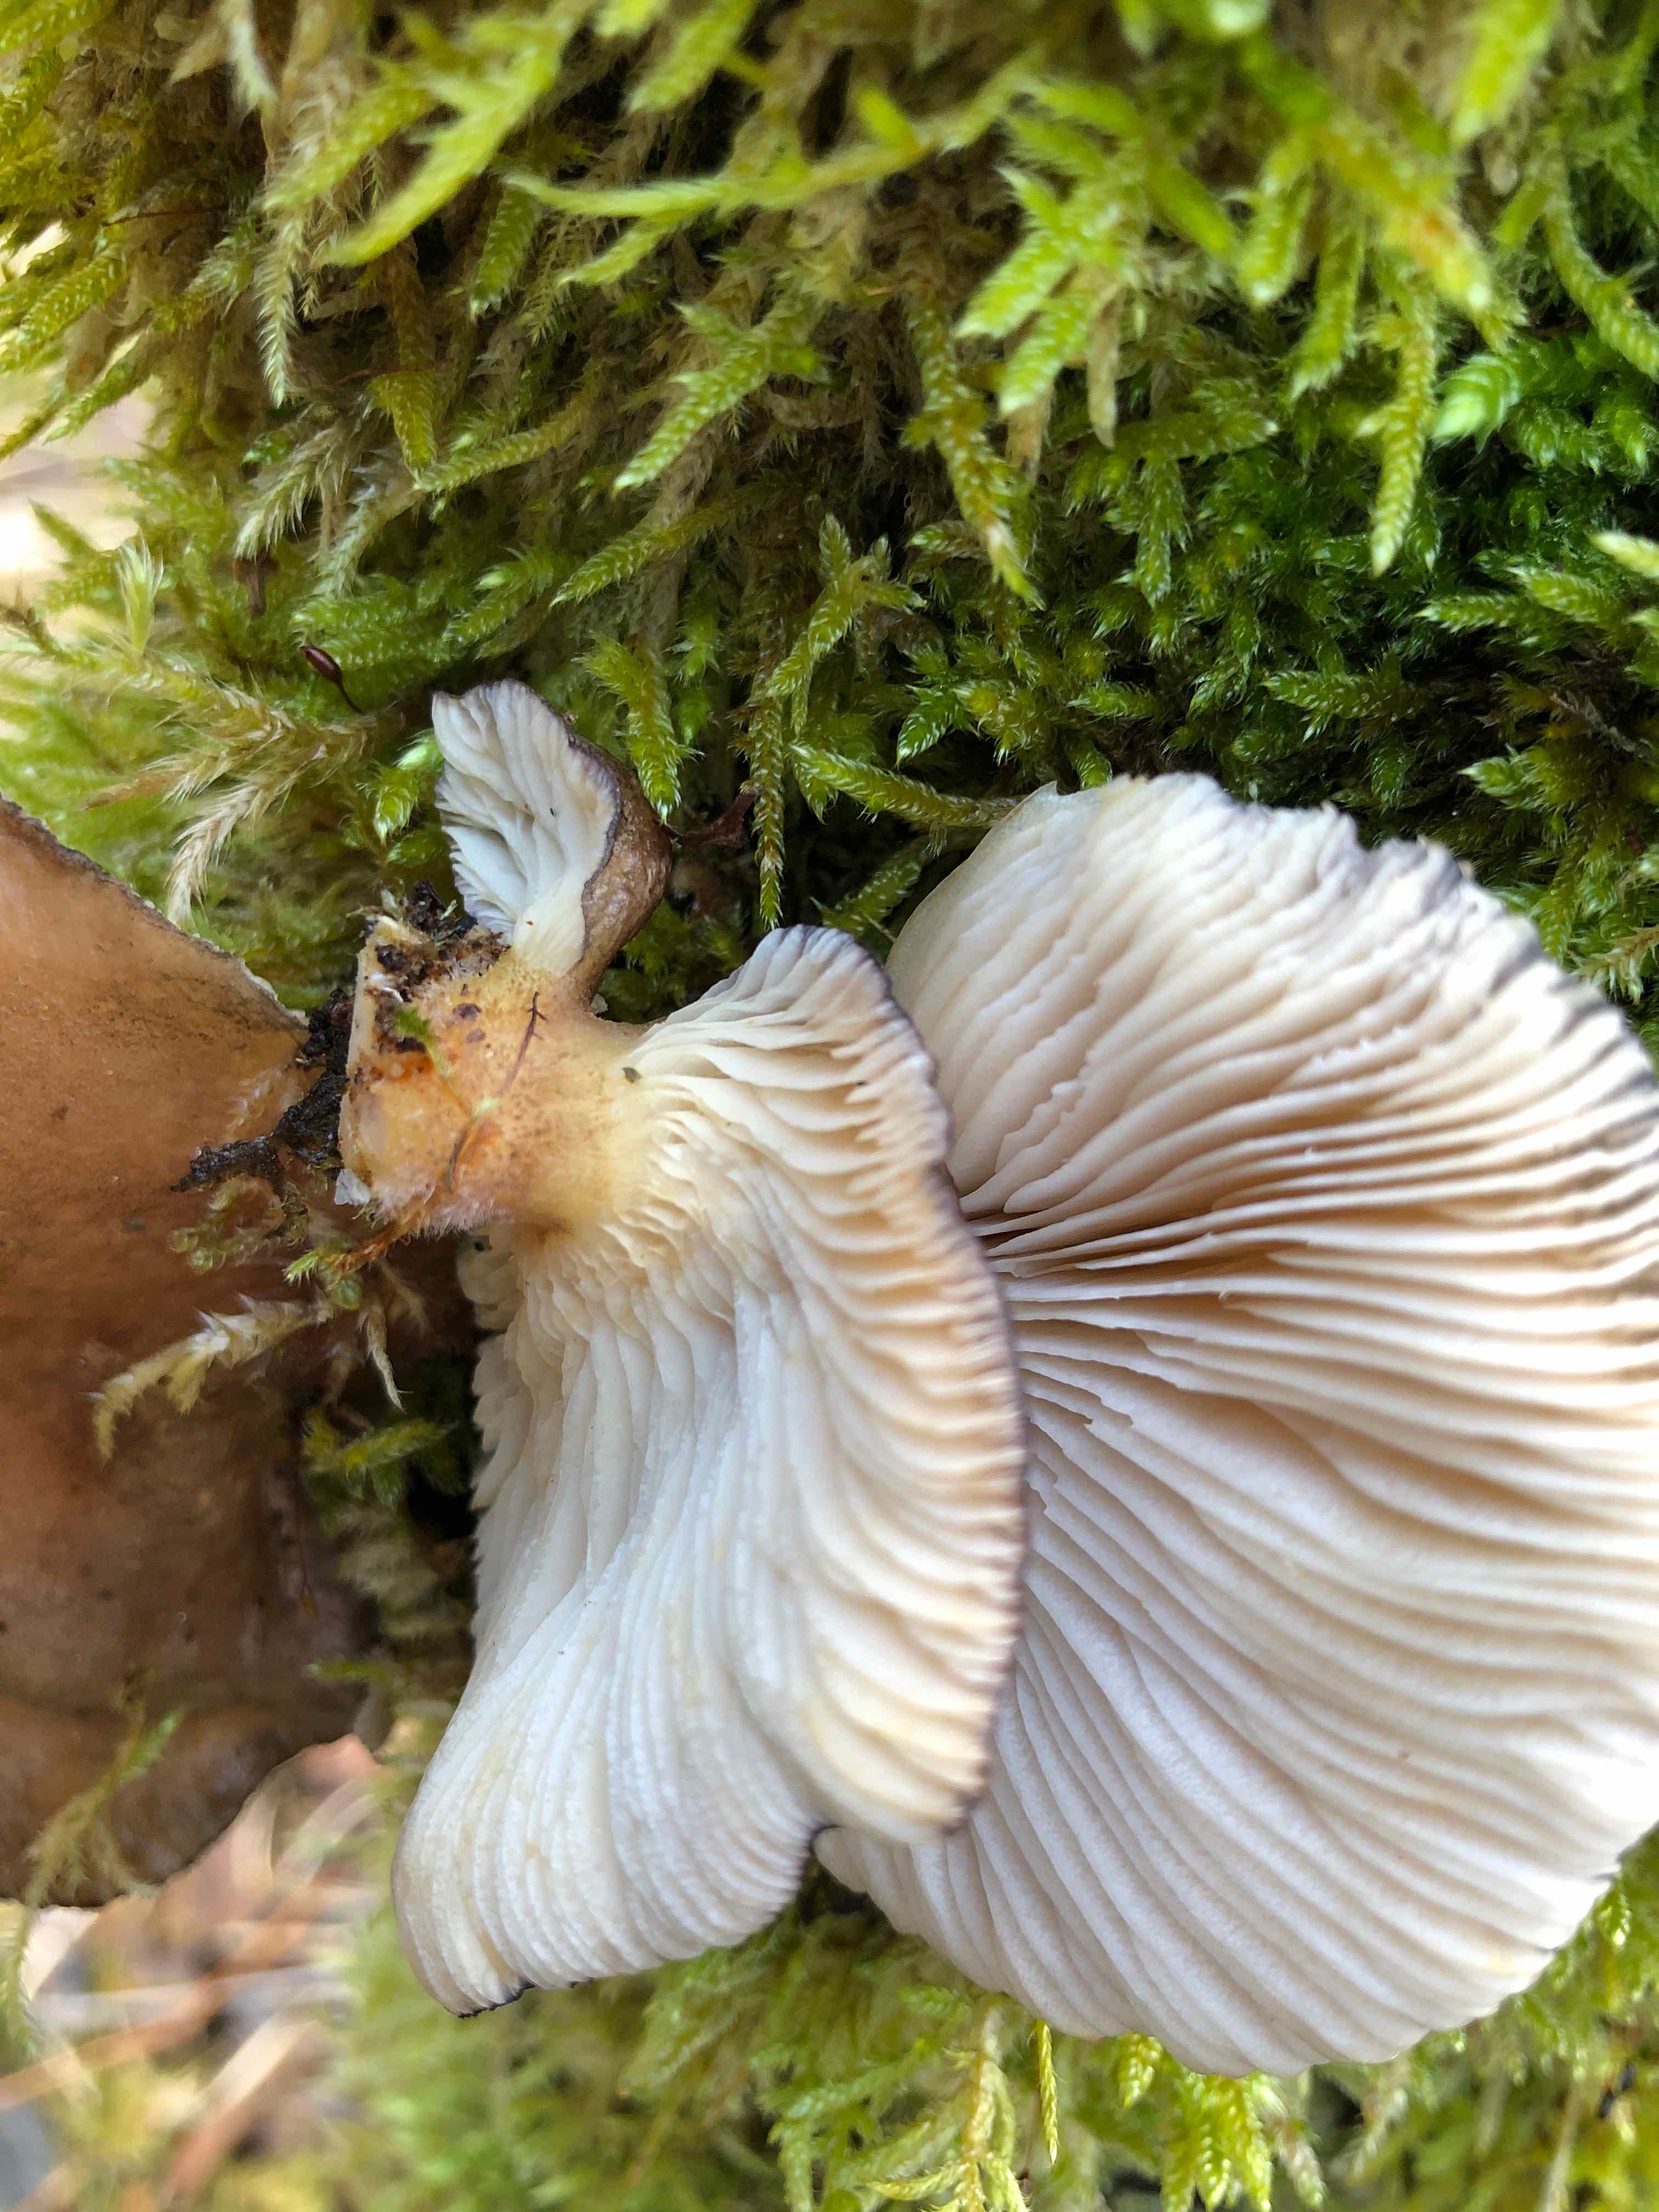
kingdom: Fungi
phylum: Basidiomycota
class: Agaricomycetes
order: Agaricales
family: Sarcomyxaceae
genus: Sarcomyxa
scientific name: Sarcomyxa serotina
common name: gummihat
